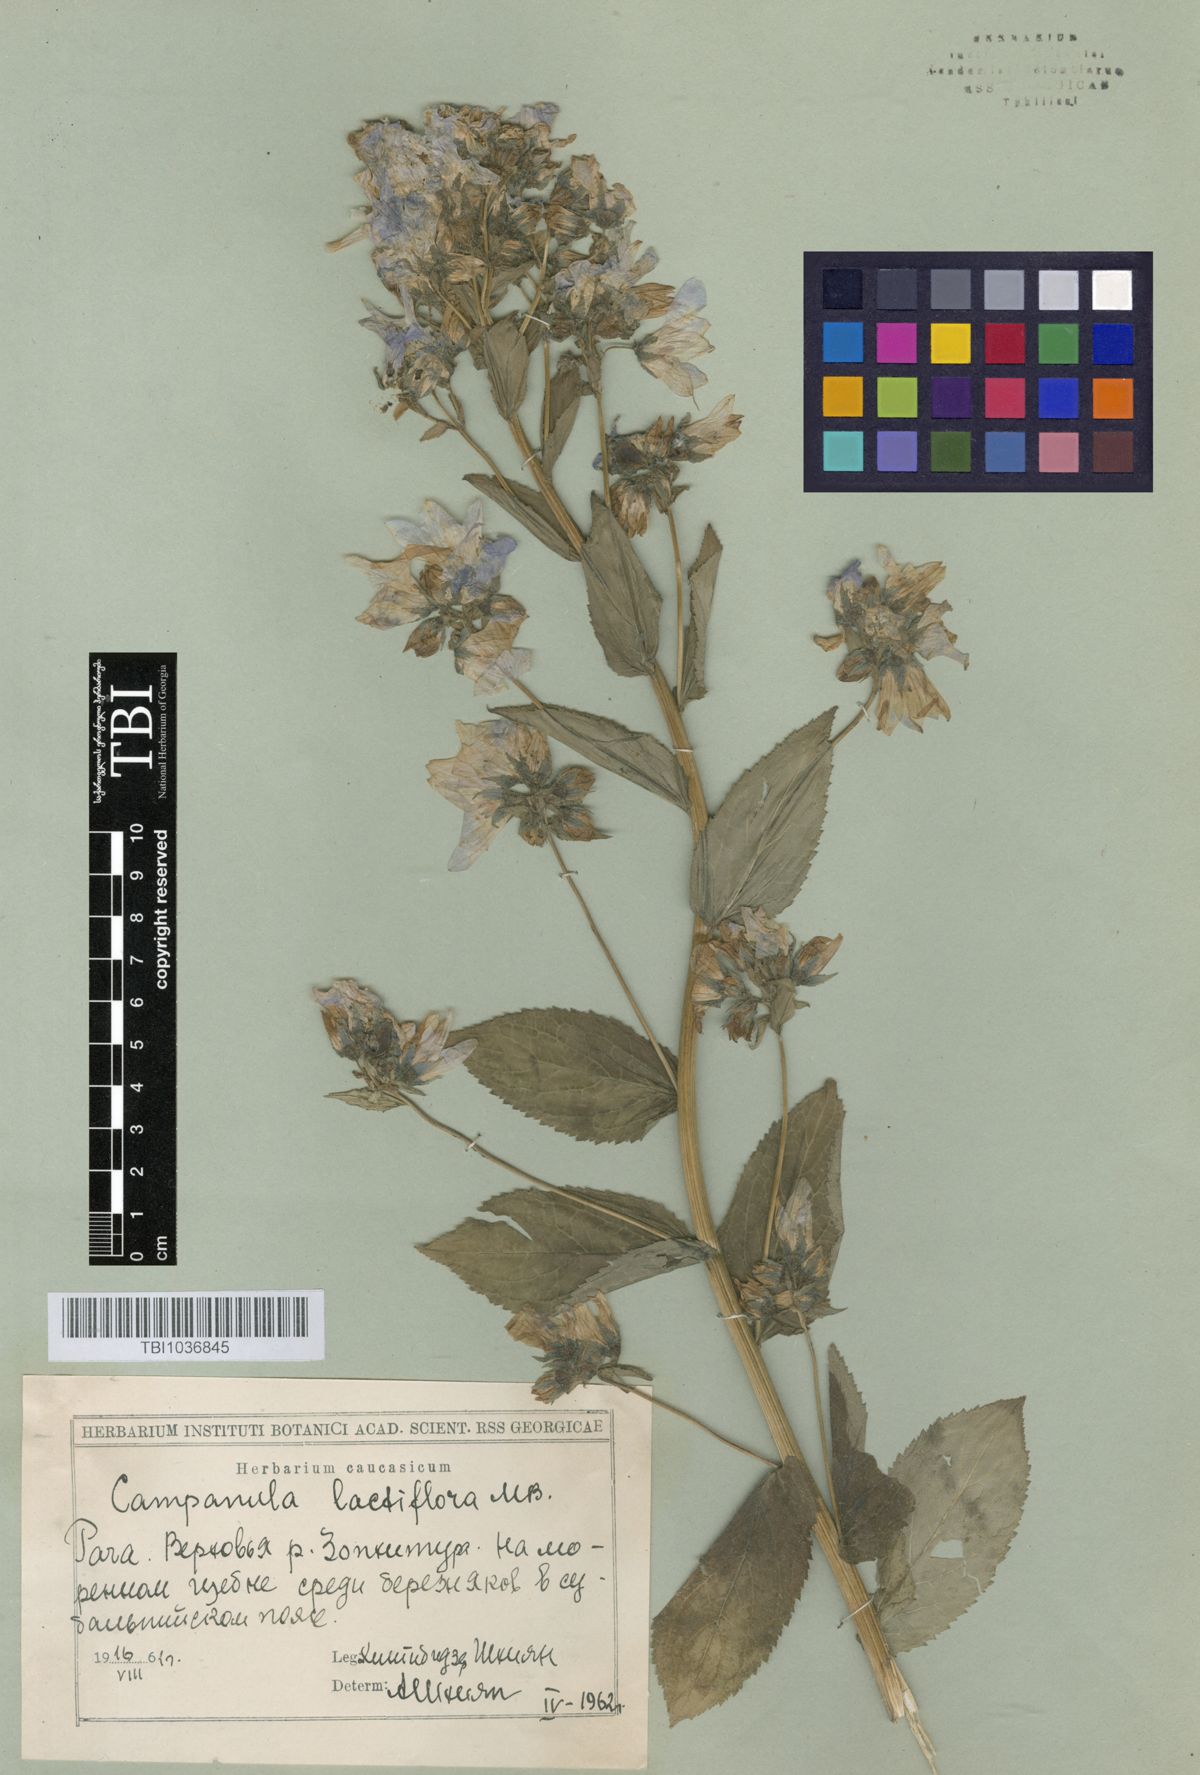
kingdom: Plantae
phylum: Tracheophyta
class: Magnoliopsida
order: Asterales
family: Campanulaceae
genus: Campanula
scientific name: Campanula lactiflora
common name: Milky bellflower
